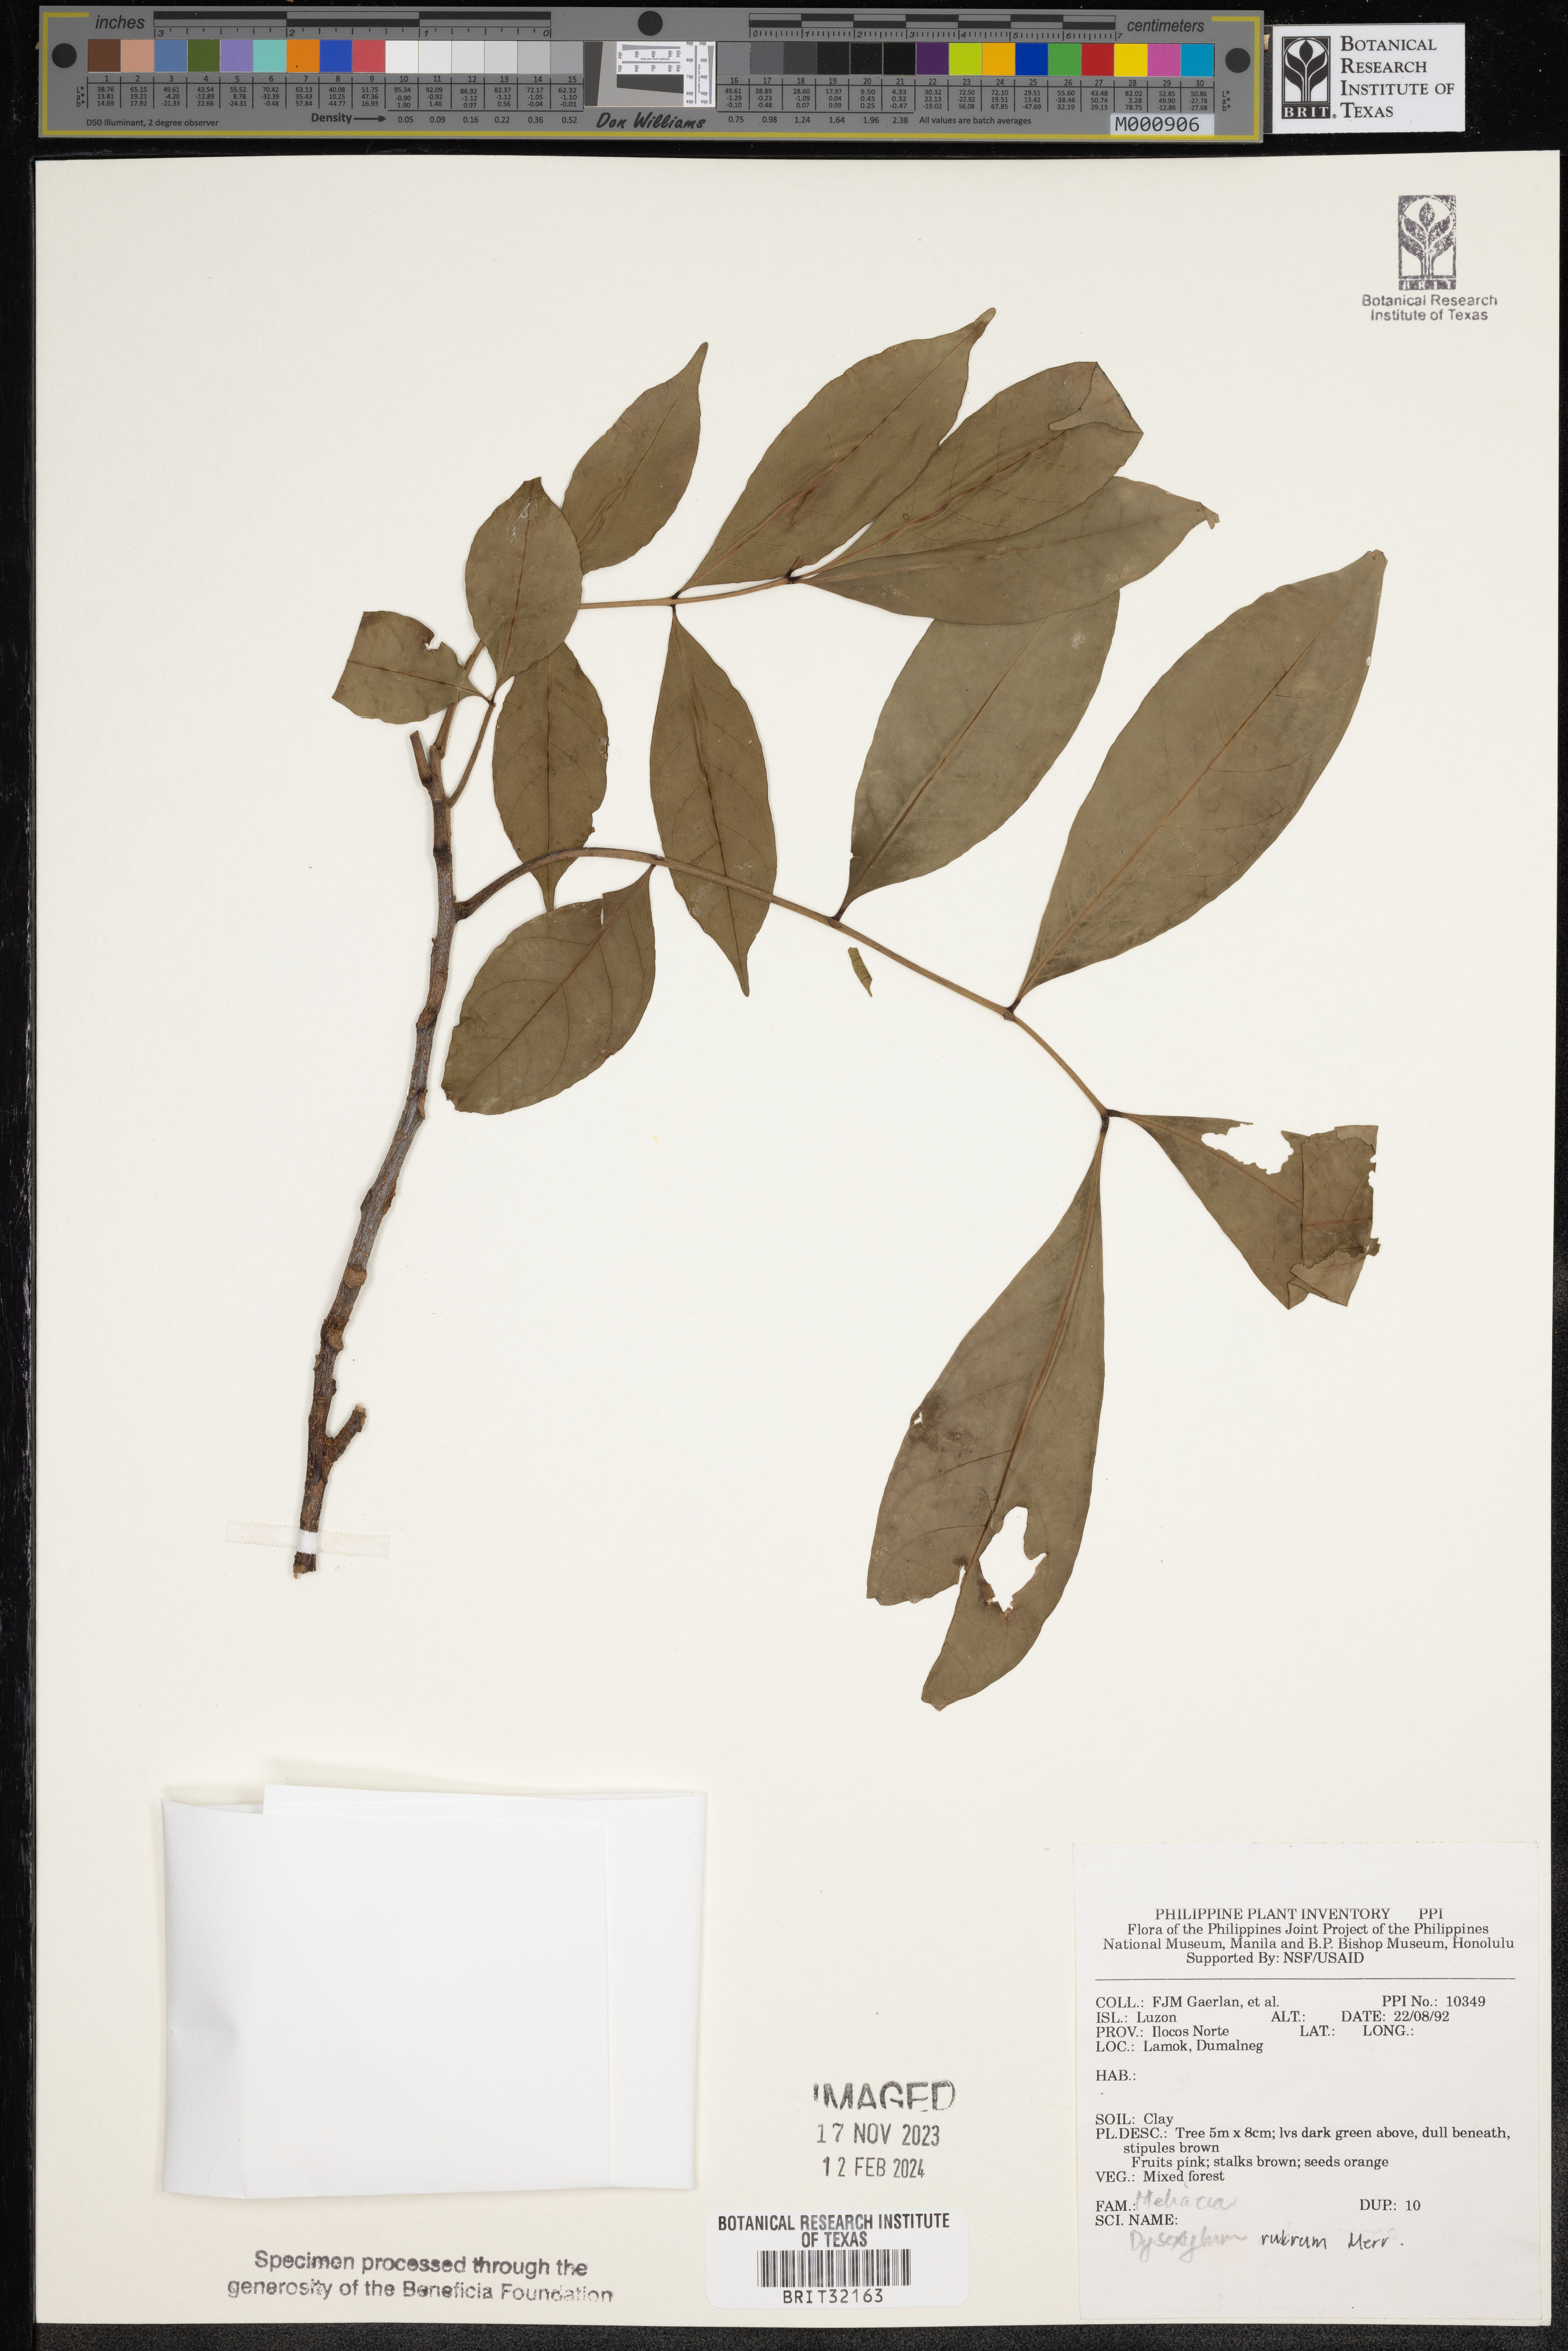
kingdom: Plantae
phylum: Tracheophyta
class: Magnoliopsida
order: Sapindales
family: Meliaceae
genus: Goniocheton
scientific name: Goniocheton arborescens
